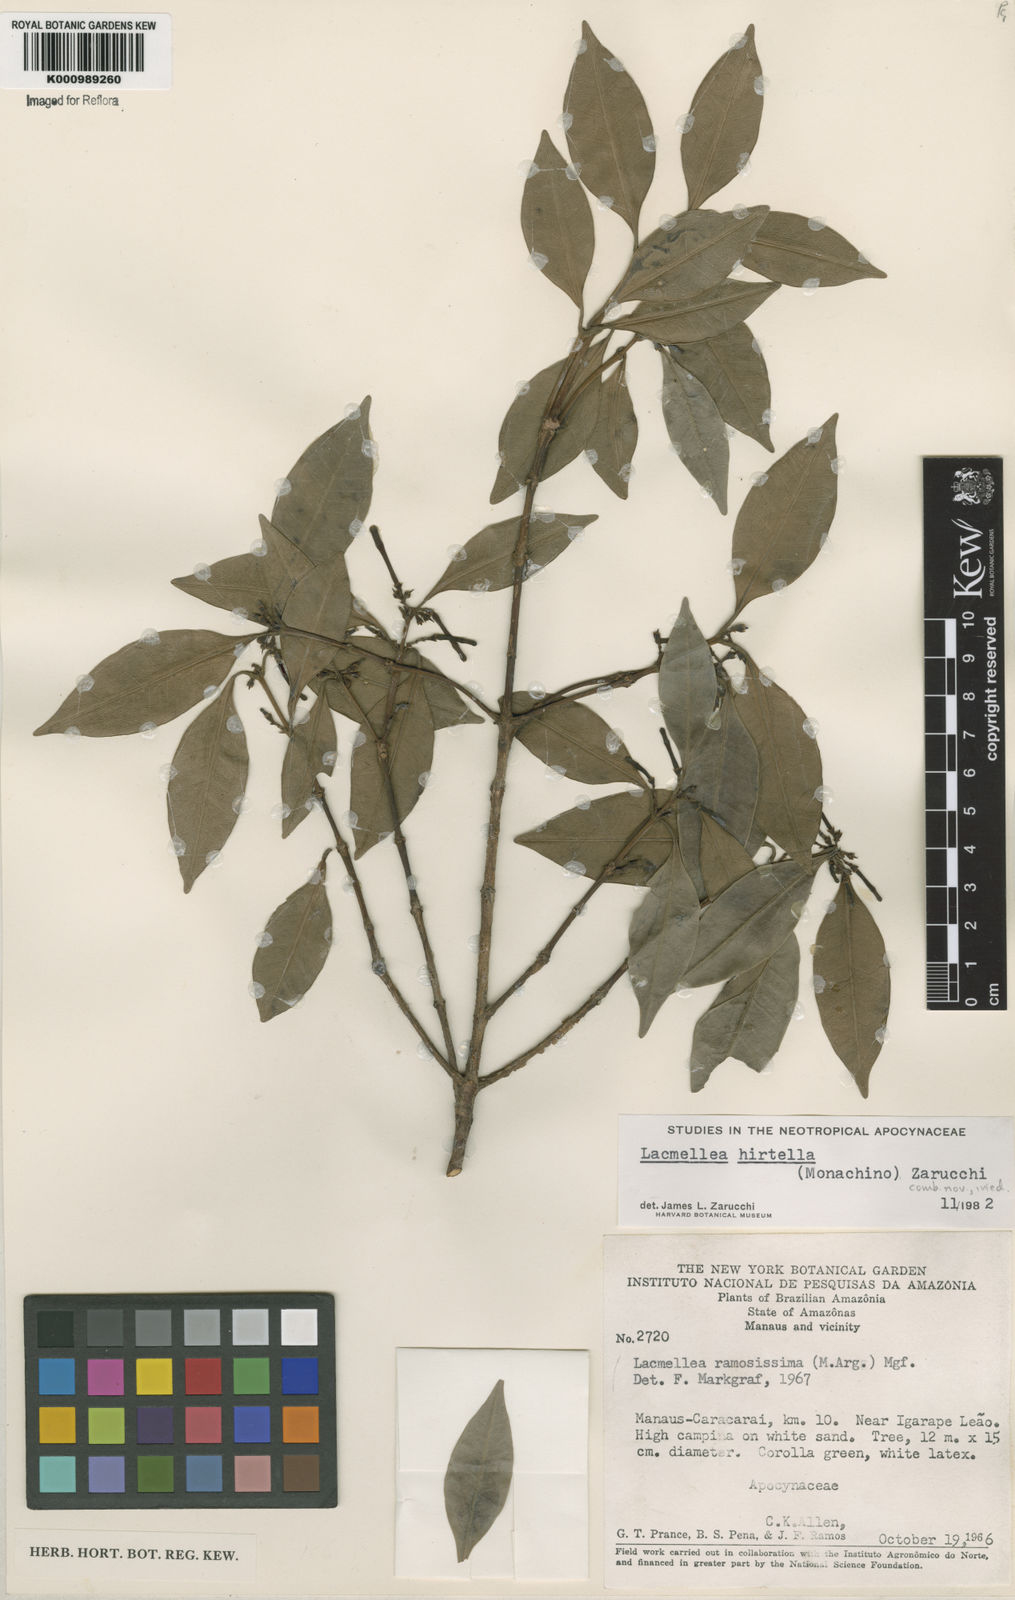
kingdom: Plantae
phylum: Tracheophyta
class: Magnoliopsida
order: Gentianales
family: Apocynaceae
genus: Lacmellea
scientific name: Lacmellea
